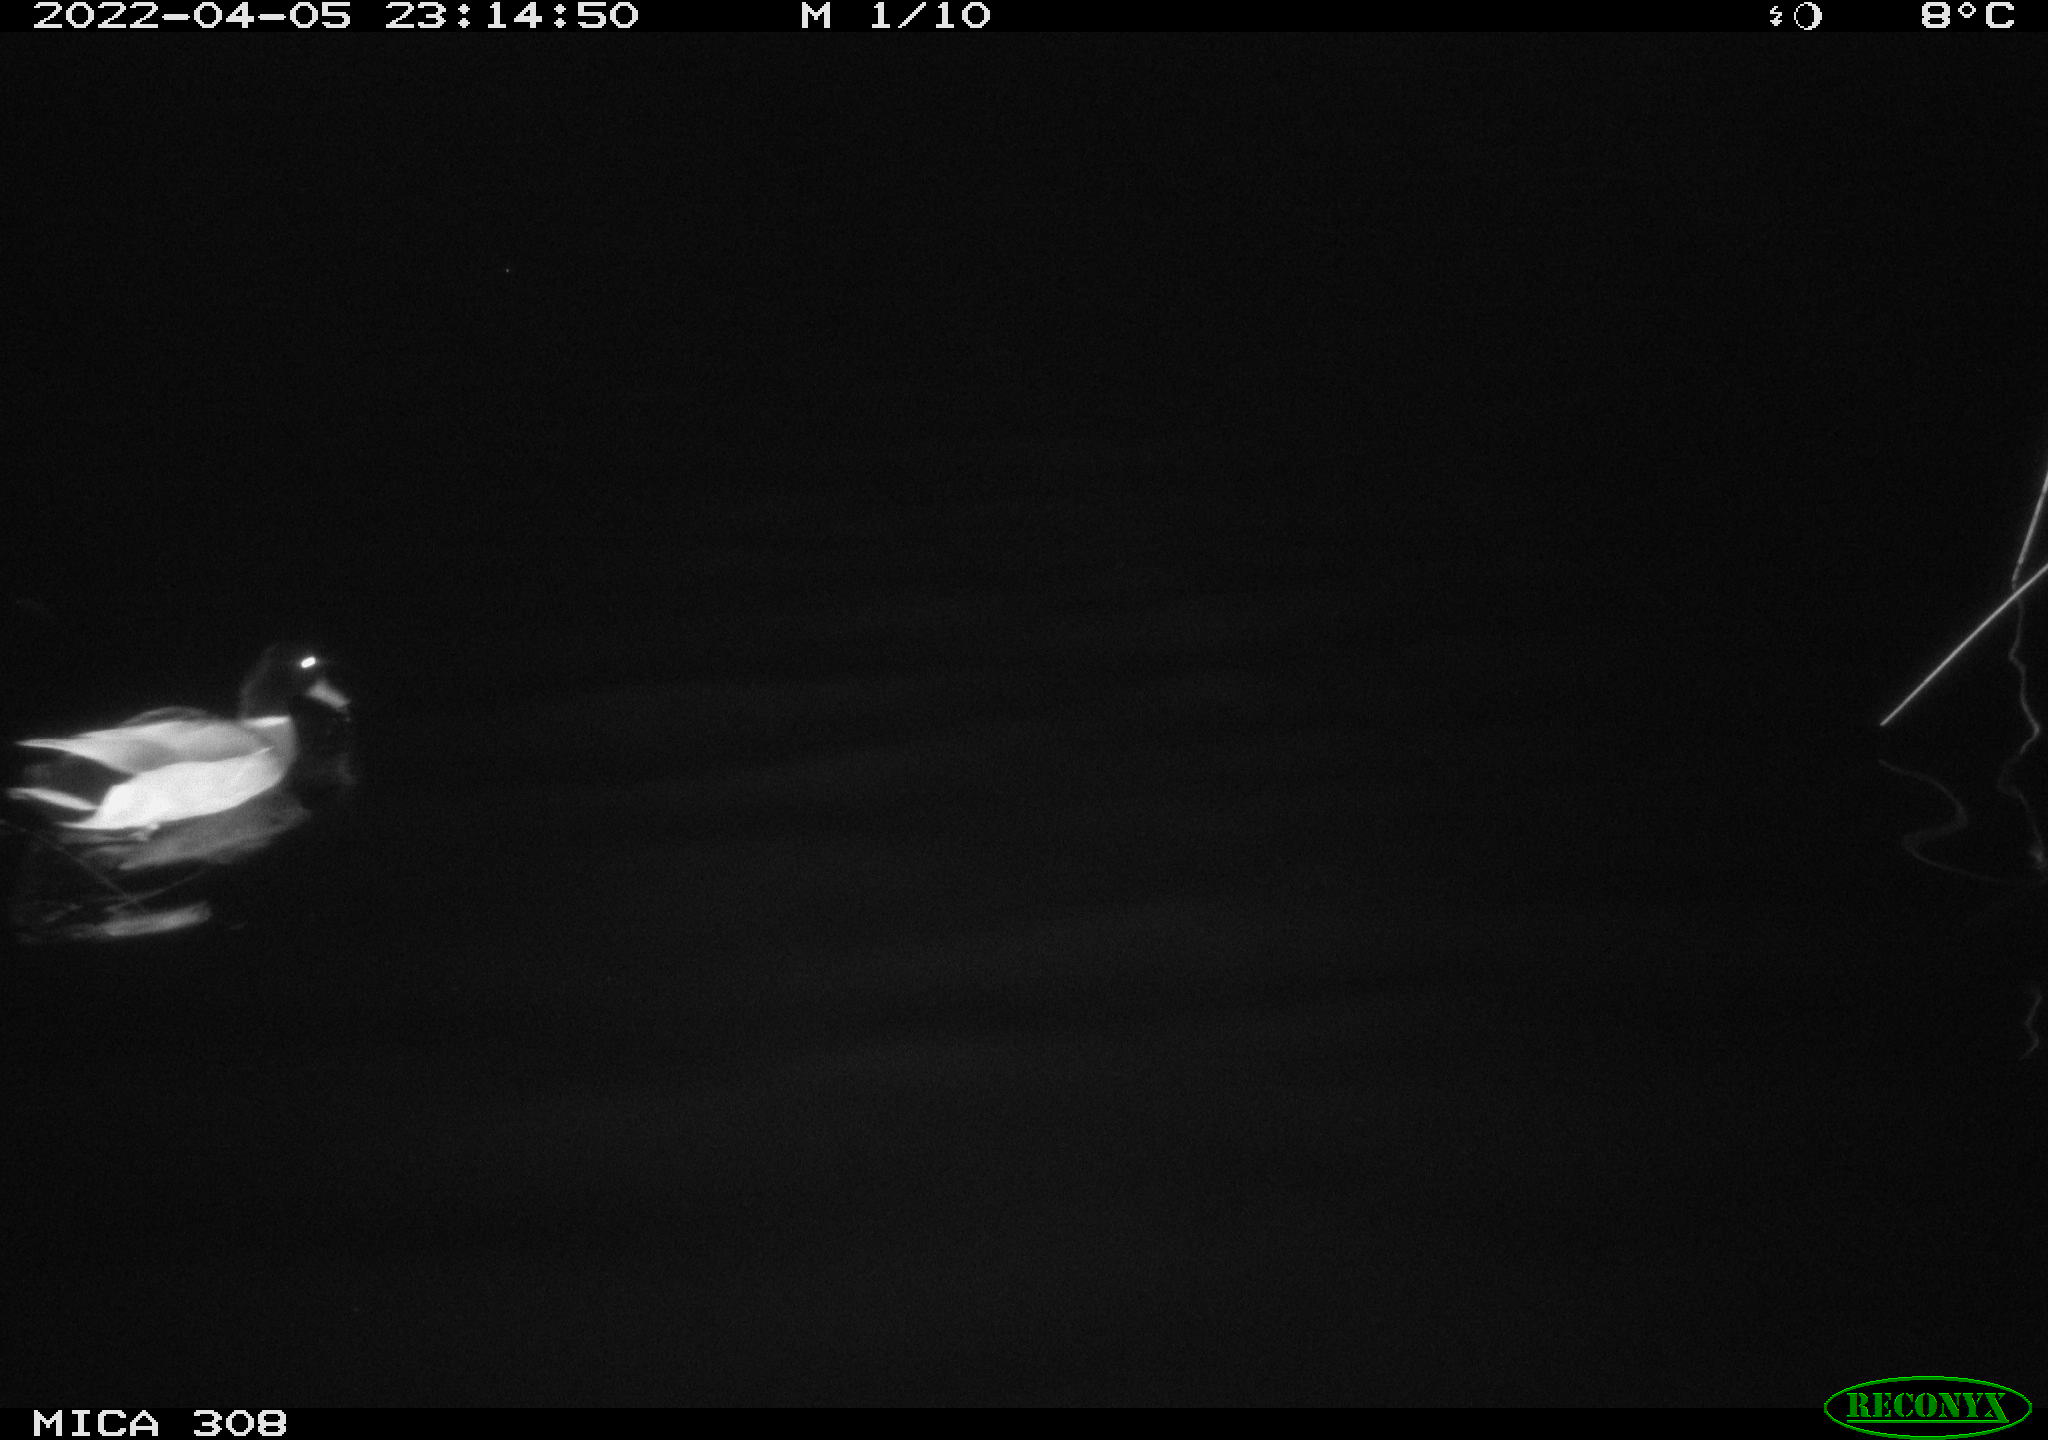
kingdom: Animalia
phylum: Chordata
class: Aves
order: Anseriformes
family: Anatidae
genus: Anas
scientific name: Anas platyrhynchos
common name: Mallard
